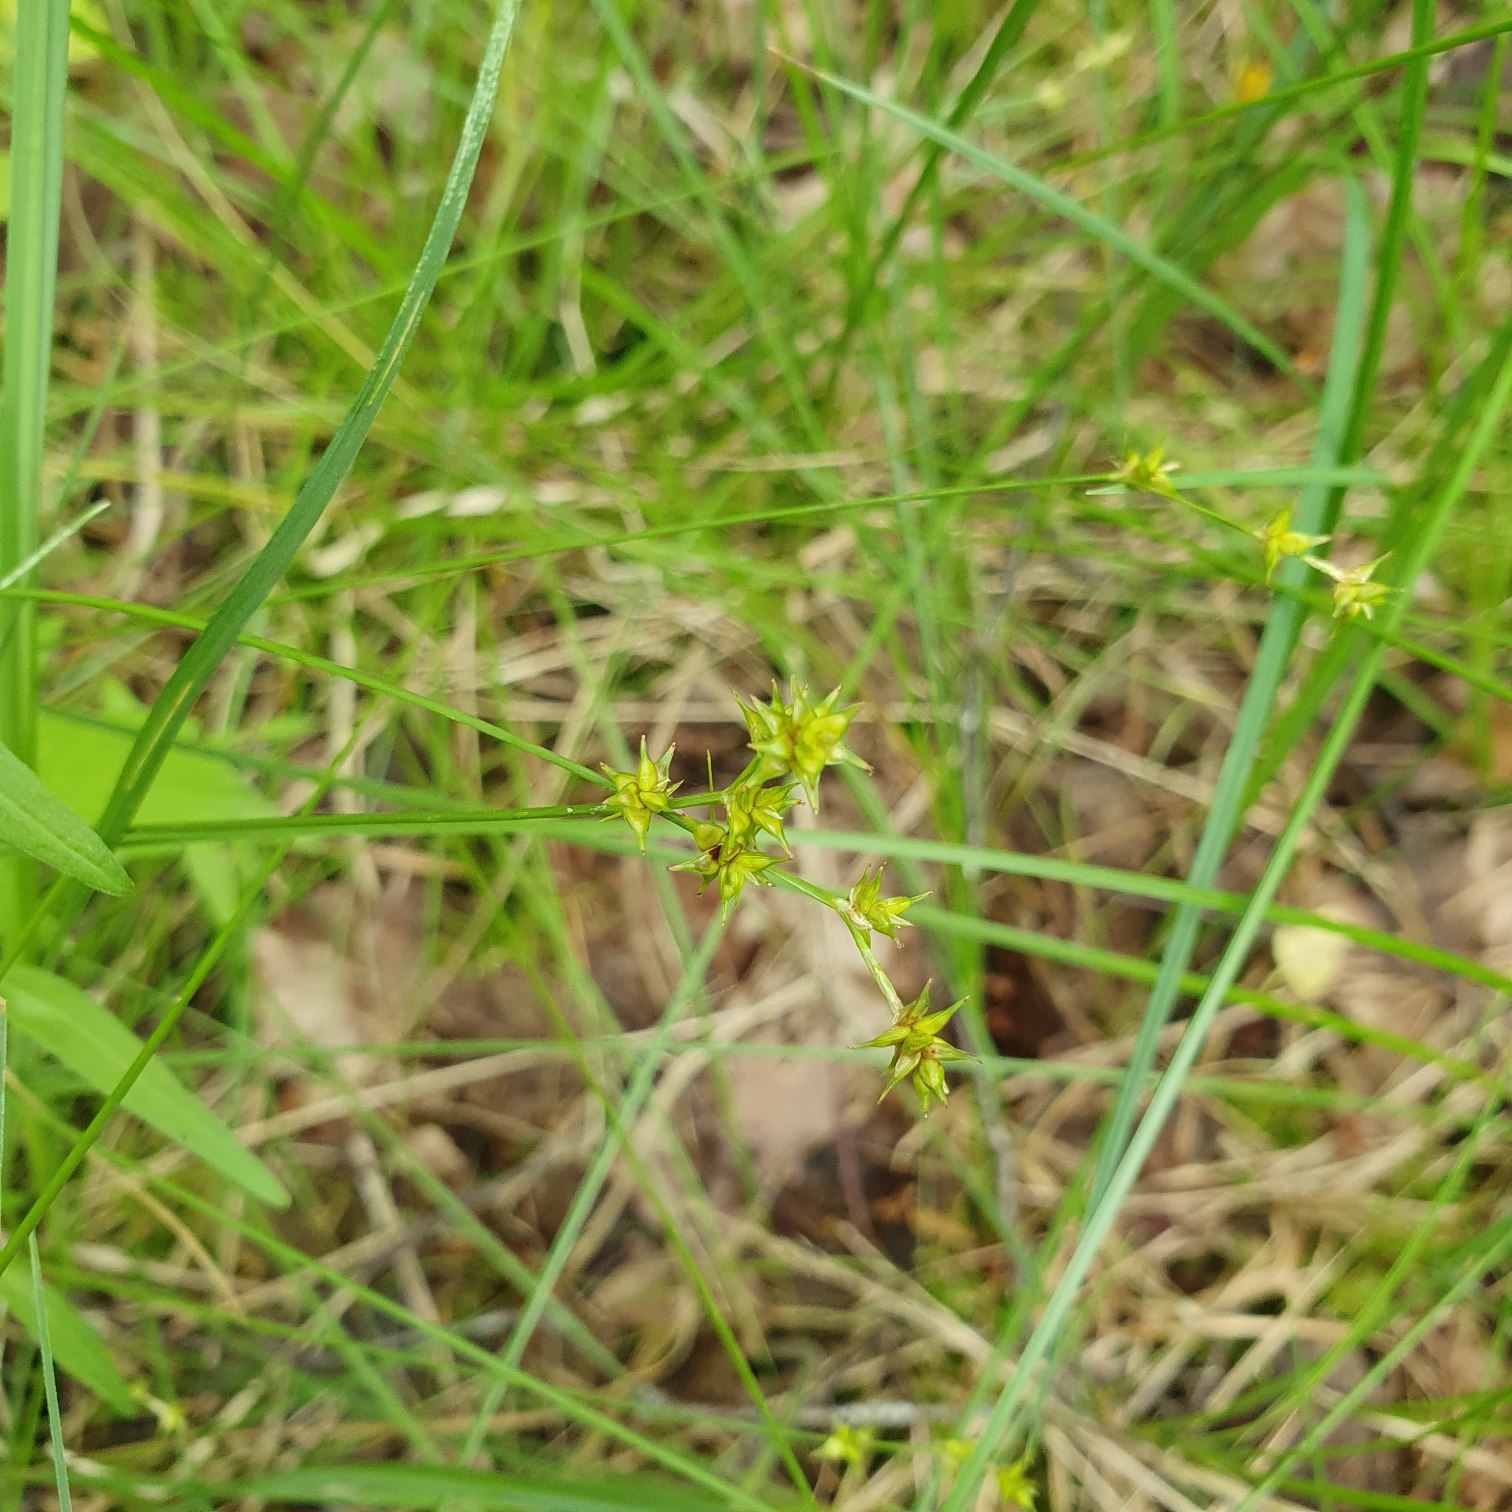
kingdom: Plantae
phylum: Tracheophyta
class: Liliopsida
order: Poales
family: Cyperaceae
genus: Carex
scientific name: Carex echinata
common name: Stjerne-star
